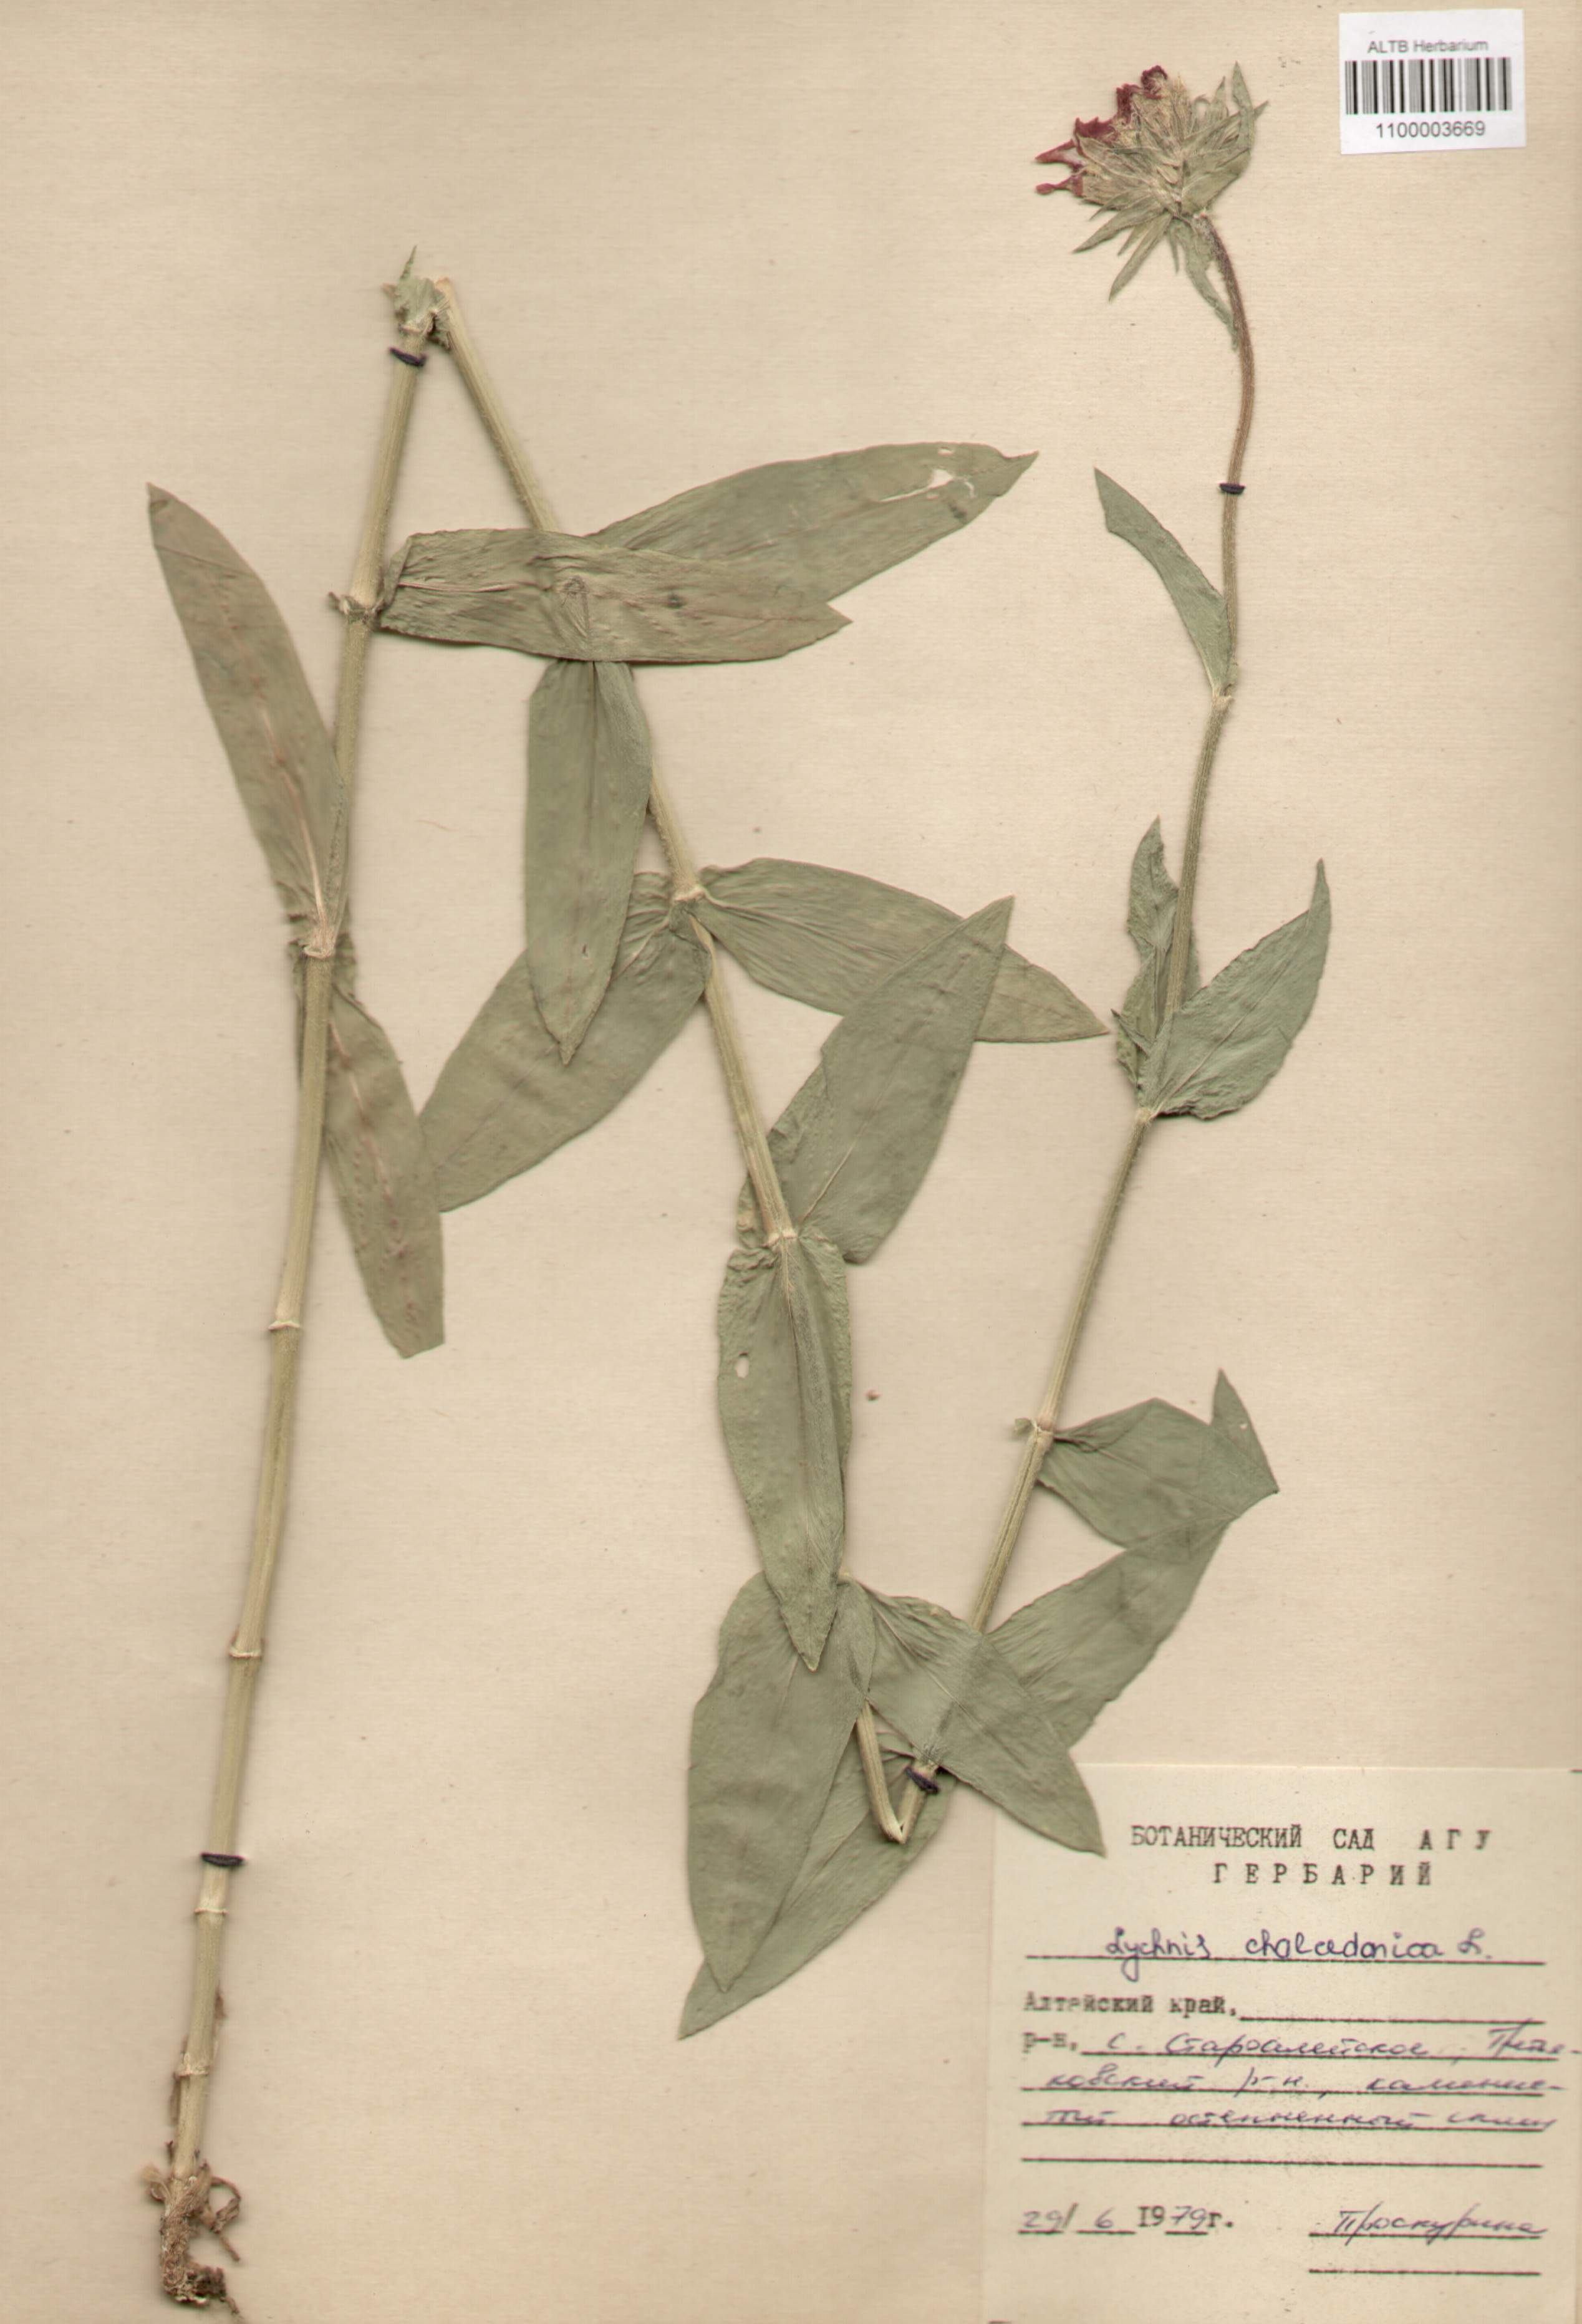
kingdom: Plantae
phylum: Tracheophyta
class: Magnoliopsida
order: Caryophyllales
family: Caryophyllaceae
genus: Silene
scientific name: Silene chalcedonica
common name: Maltese-cross
